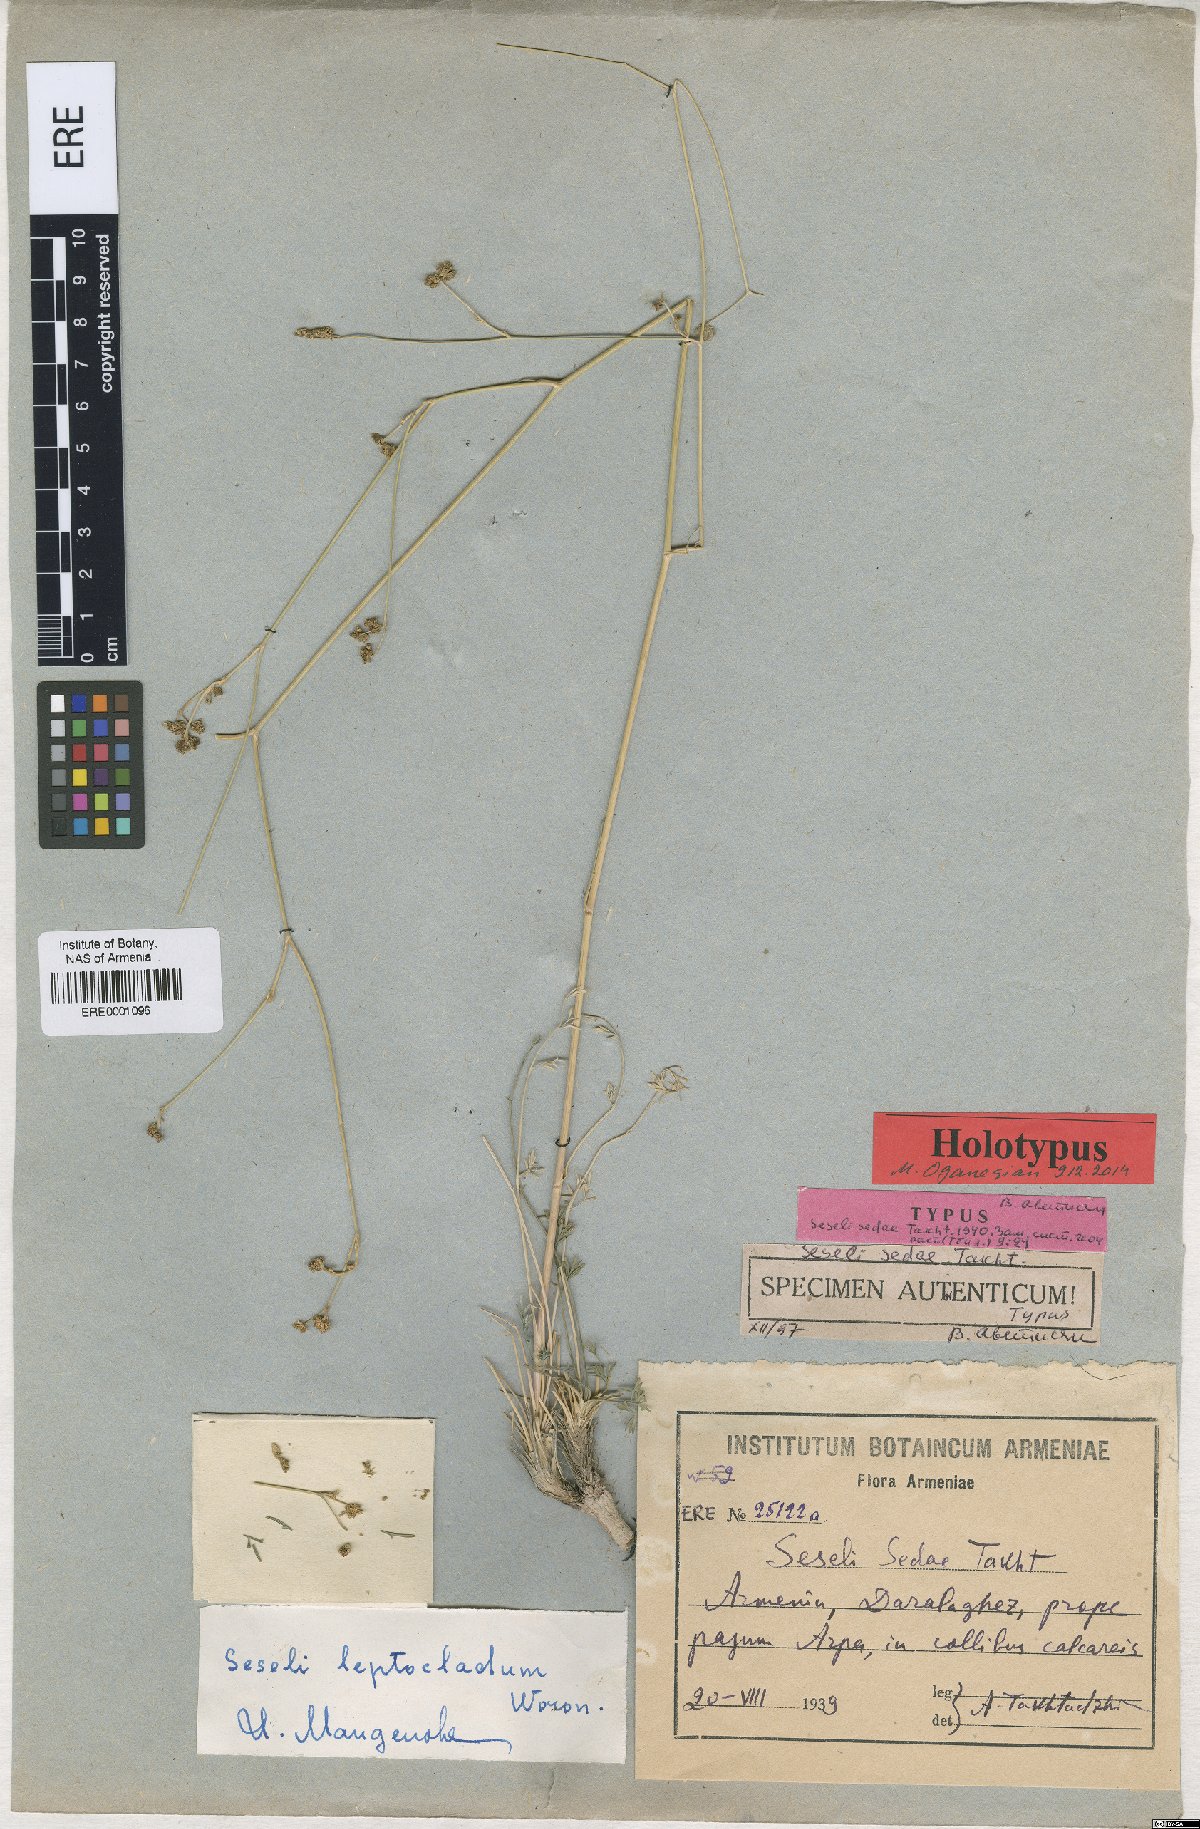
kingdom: Plantae
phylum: Tracheophyta
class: Magnoliopsida
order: Apiales
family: Apiaceae
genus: Seseli
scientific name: Seseli leptocladum
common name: Finely twiggy seseli
